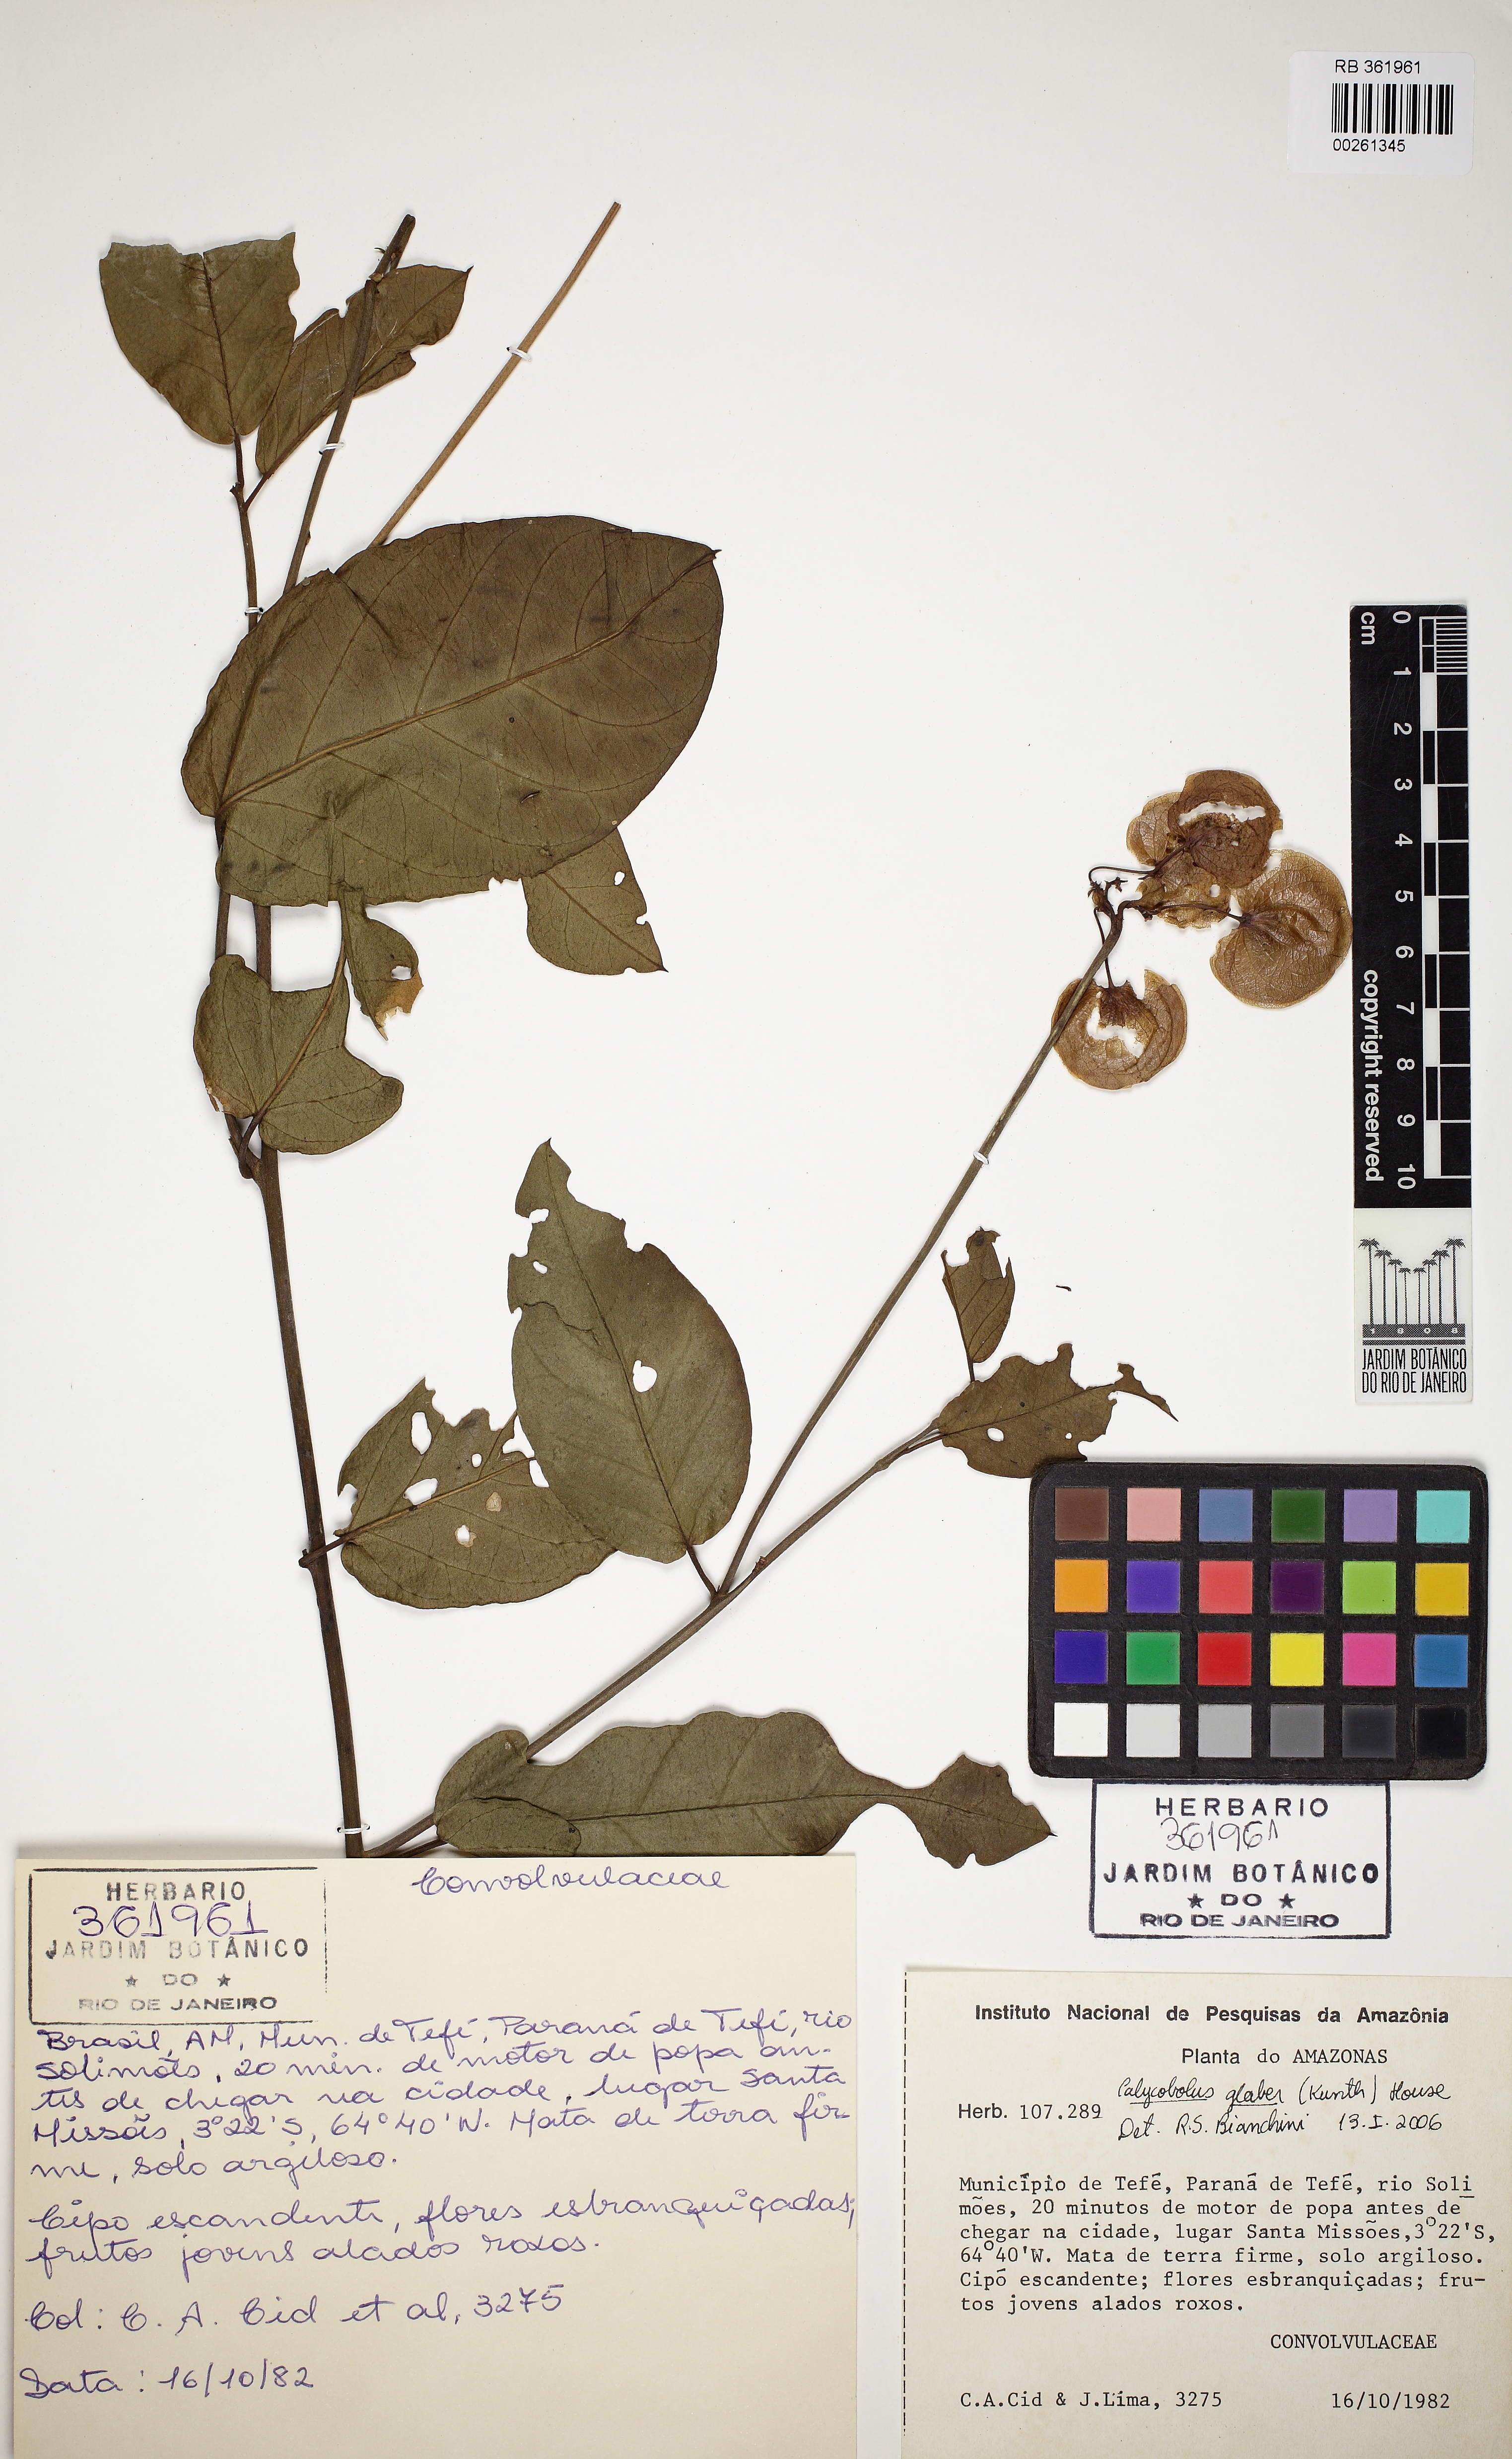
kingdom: Plantae
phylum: Tracheophyta
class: Magnoliopsida
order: Solanales
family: Convolvulaceae
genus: Calycobolus
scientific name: Calycobolus glaber
